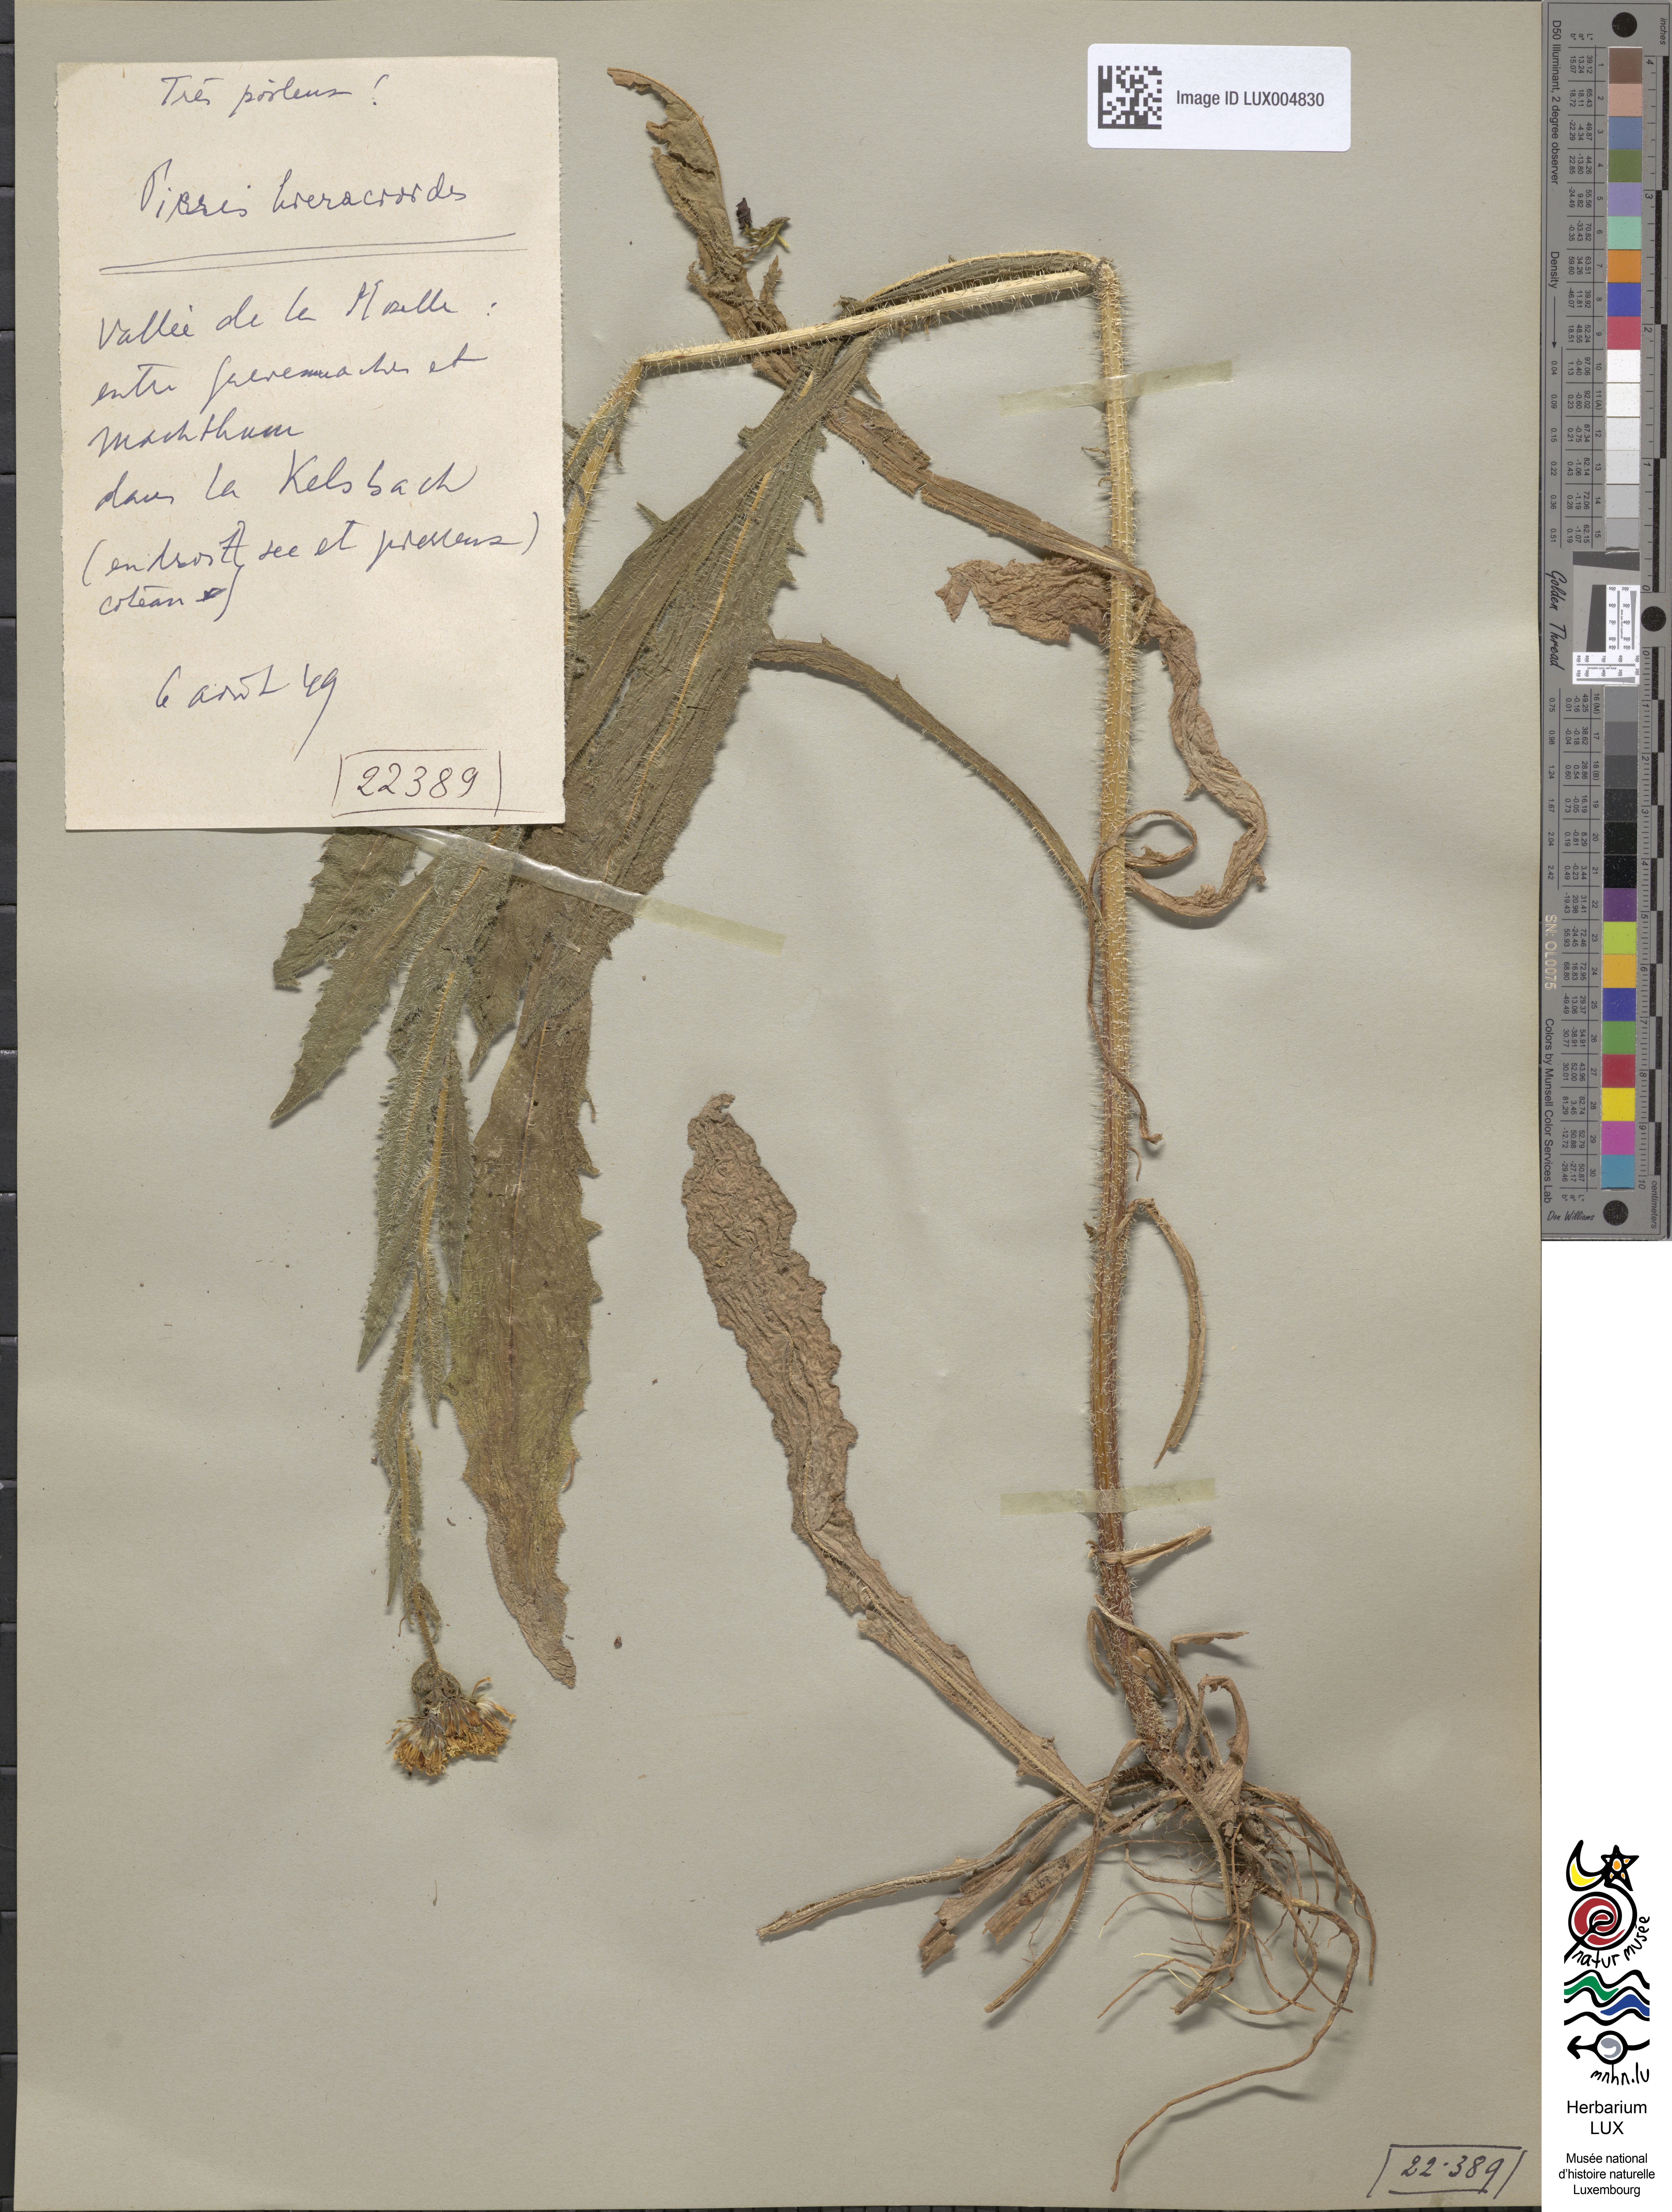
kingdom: Plantae
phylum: Tracheophyta
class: Magnoliopsida
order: Asterales
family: Asteraceae
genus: Picris
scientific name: Picris hieracioides
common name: Hawkweed oxtongue
